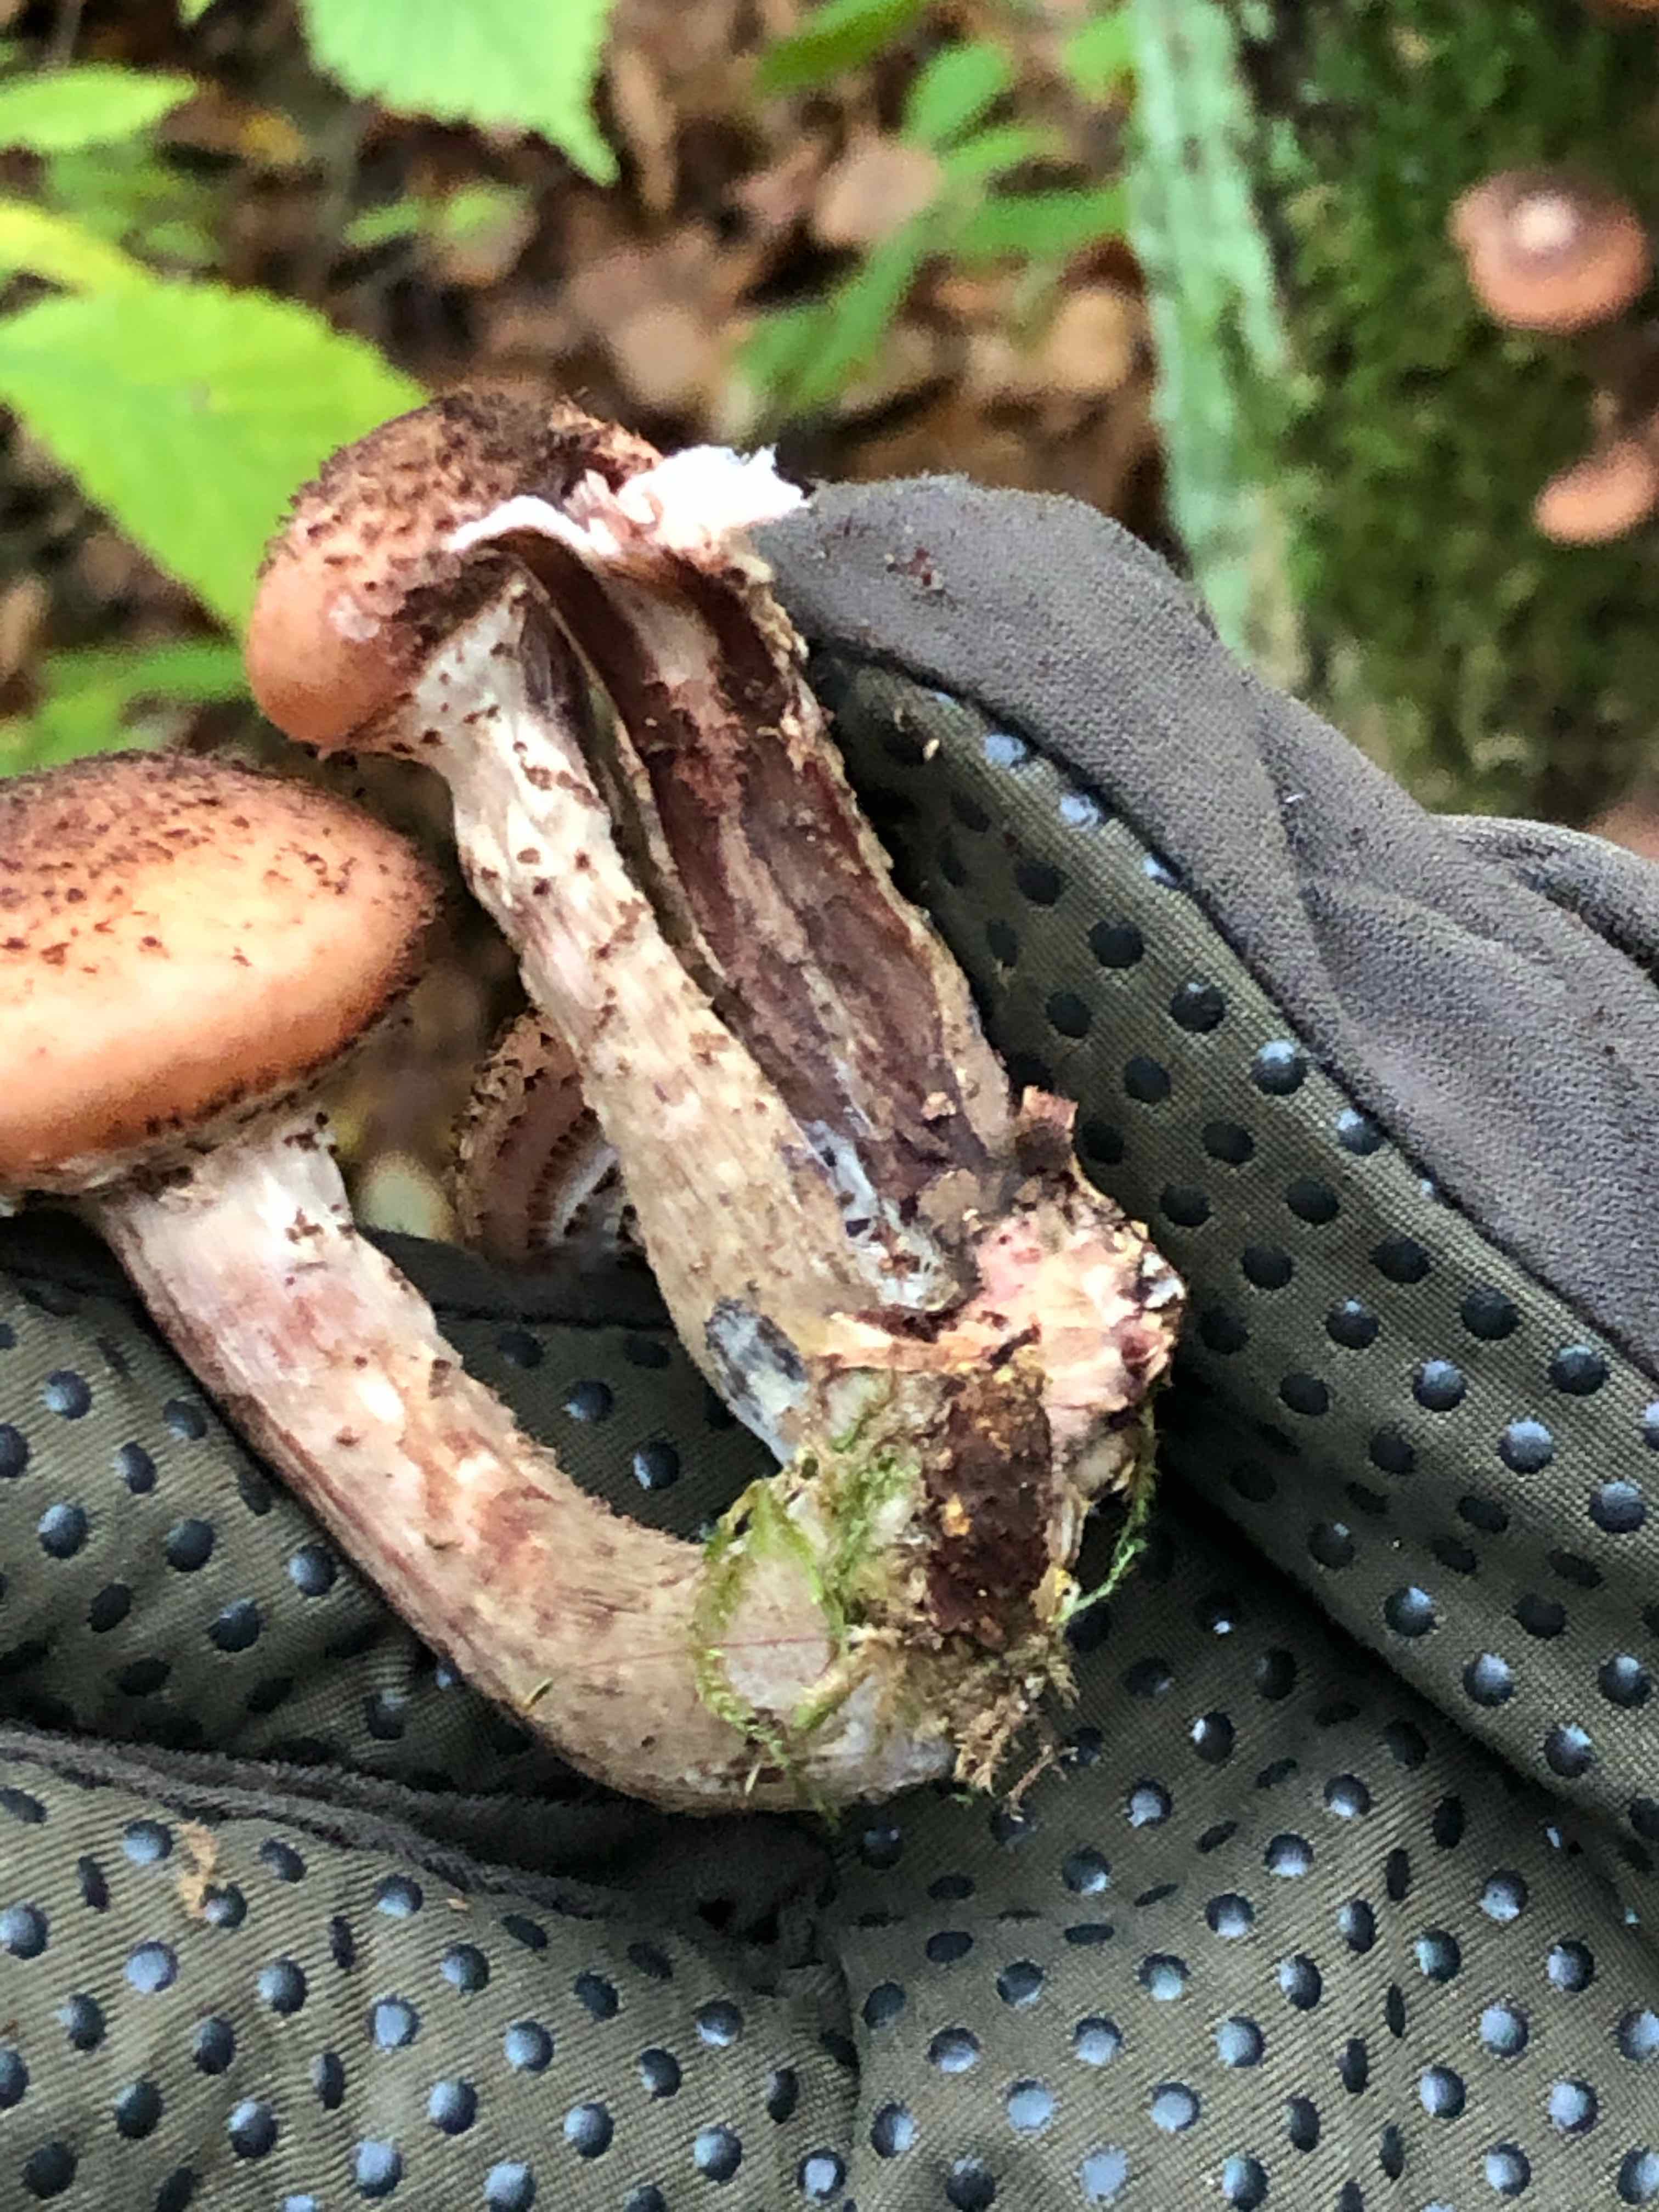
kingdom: Fungi
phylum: Basidiomycota
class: Agaricomycetes
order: Agaricales
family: Physalacriaceae
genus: Armillaria
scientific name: Armillaria ostoyae
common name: mørk honningsvamp
